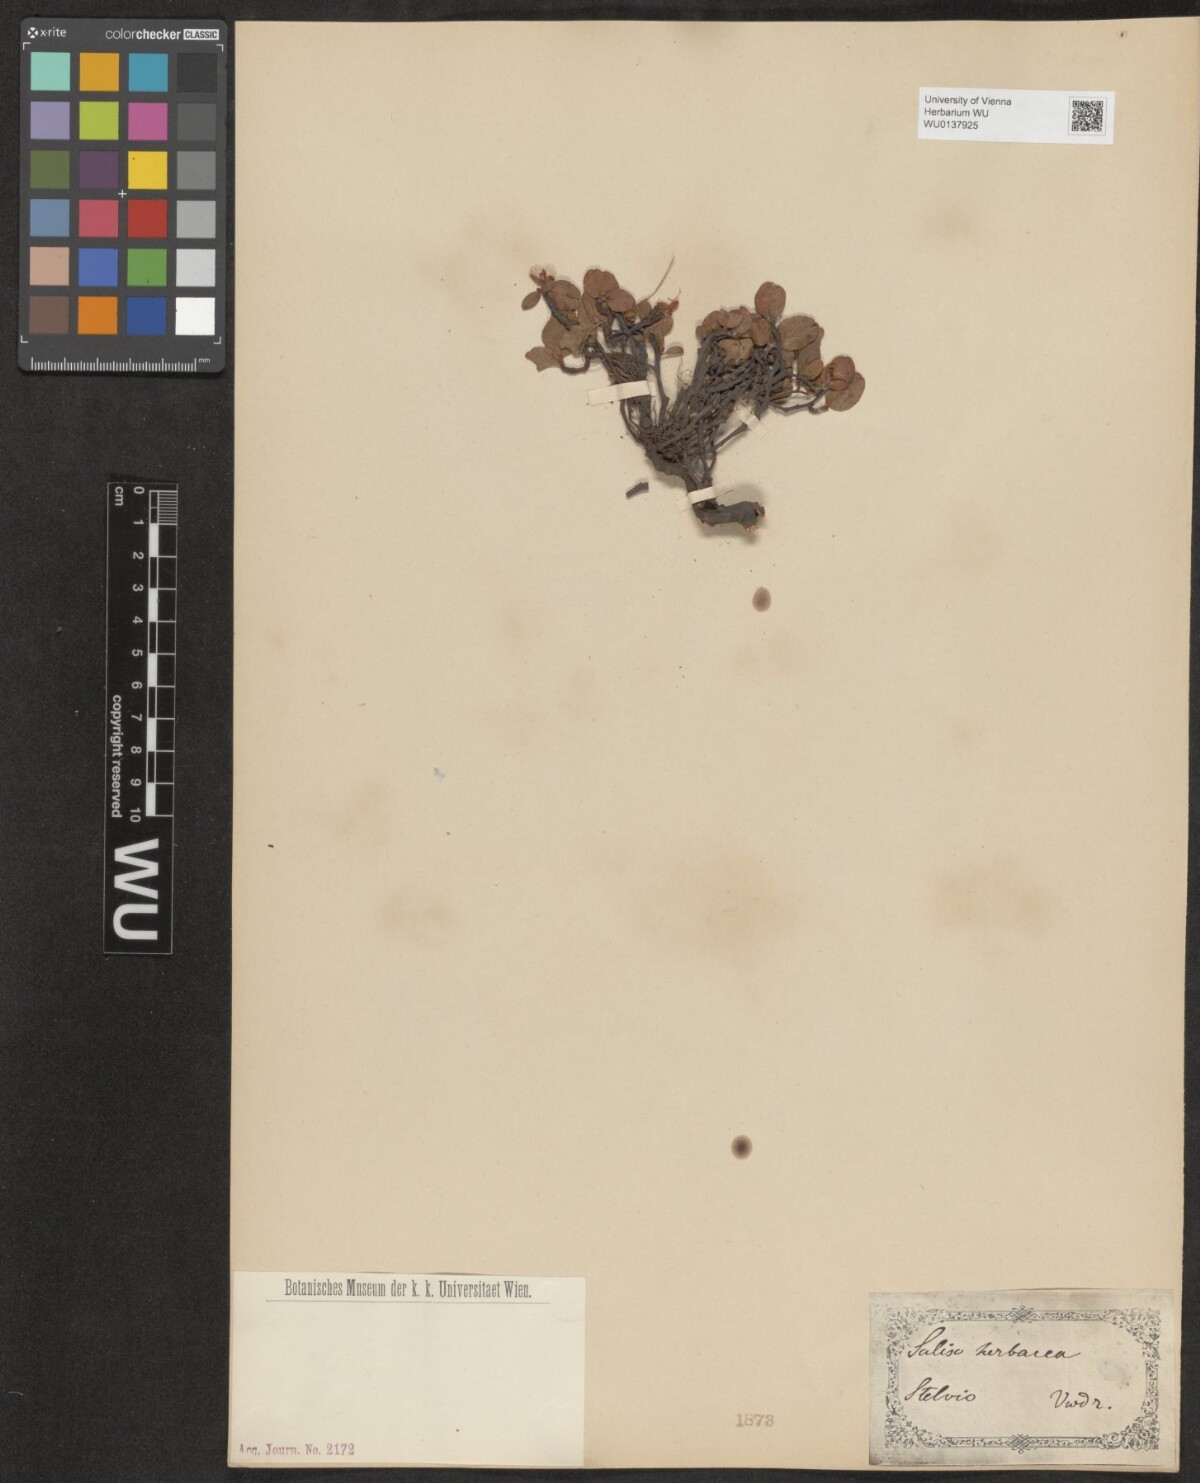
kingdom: Plantae
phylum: Tracheophyta
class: Magnoliopsida
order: Malpighiales
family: Salicaceae
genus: Salix
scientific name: Salix herbacea
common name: Dwarf willow
